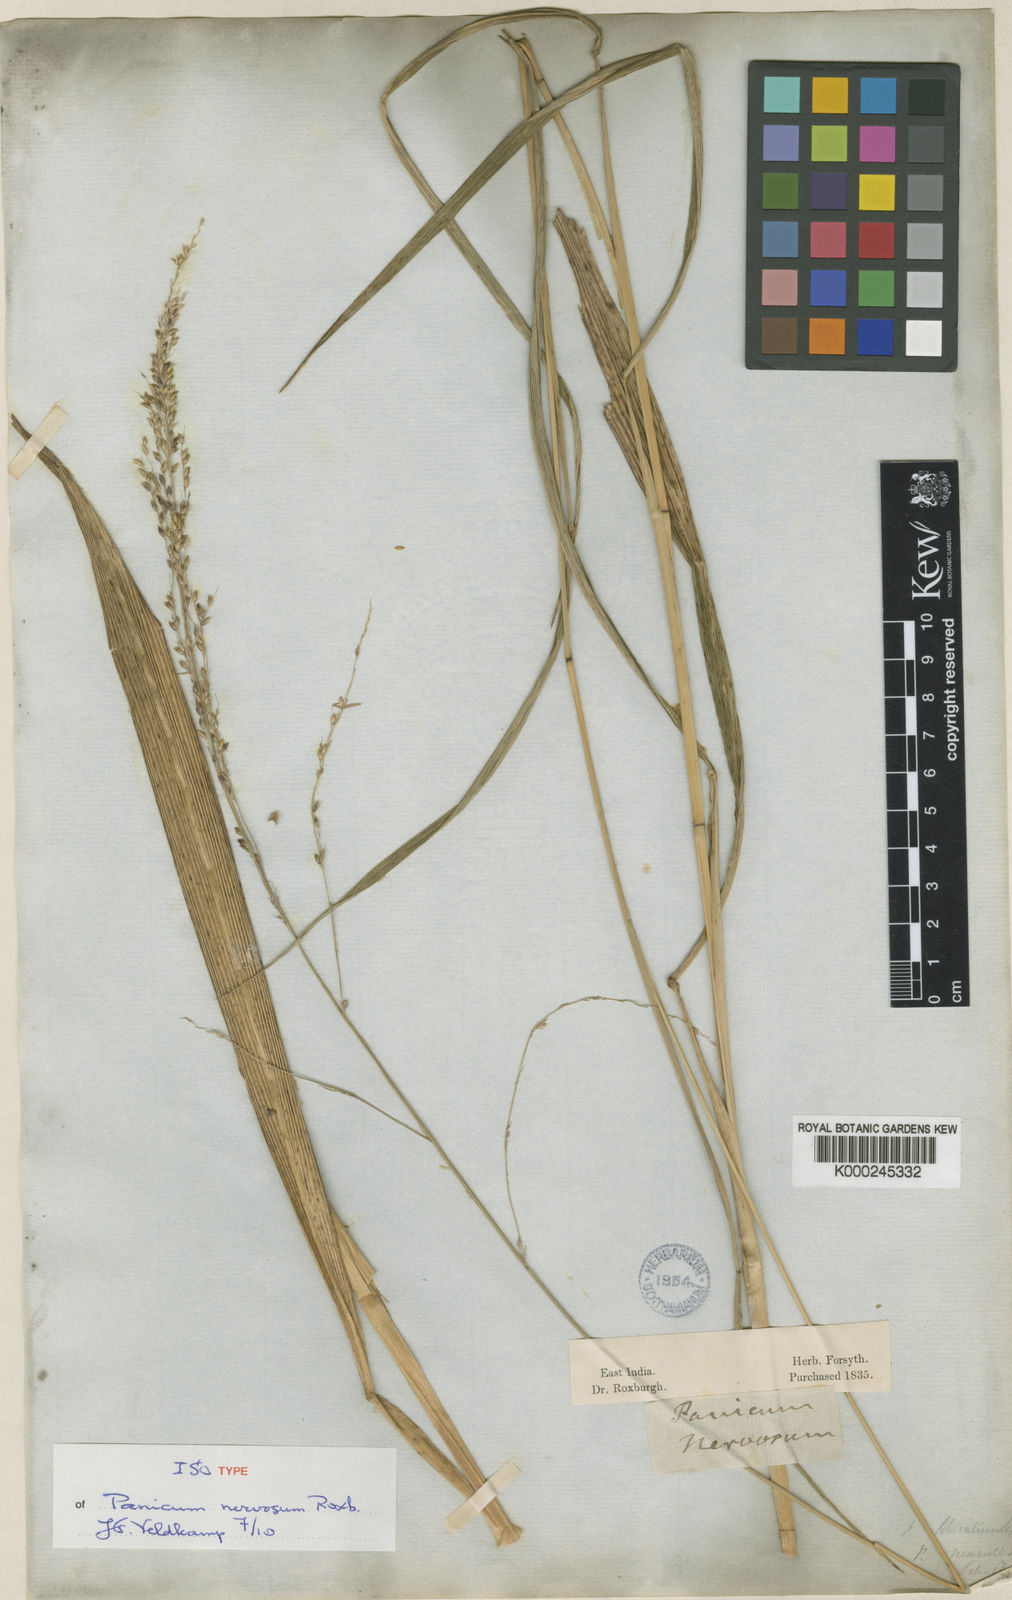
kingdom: Plantae
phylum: Tracheophyta
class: Liliopsida
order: Poales
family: Poaceae
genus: Setaria
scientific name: Setaria palmifolia
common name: Broadleaved bristlegrass
